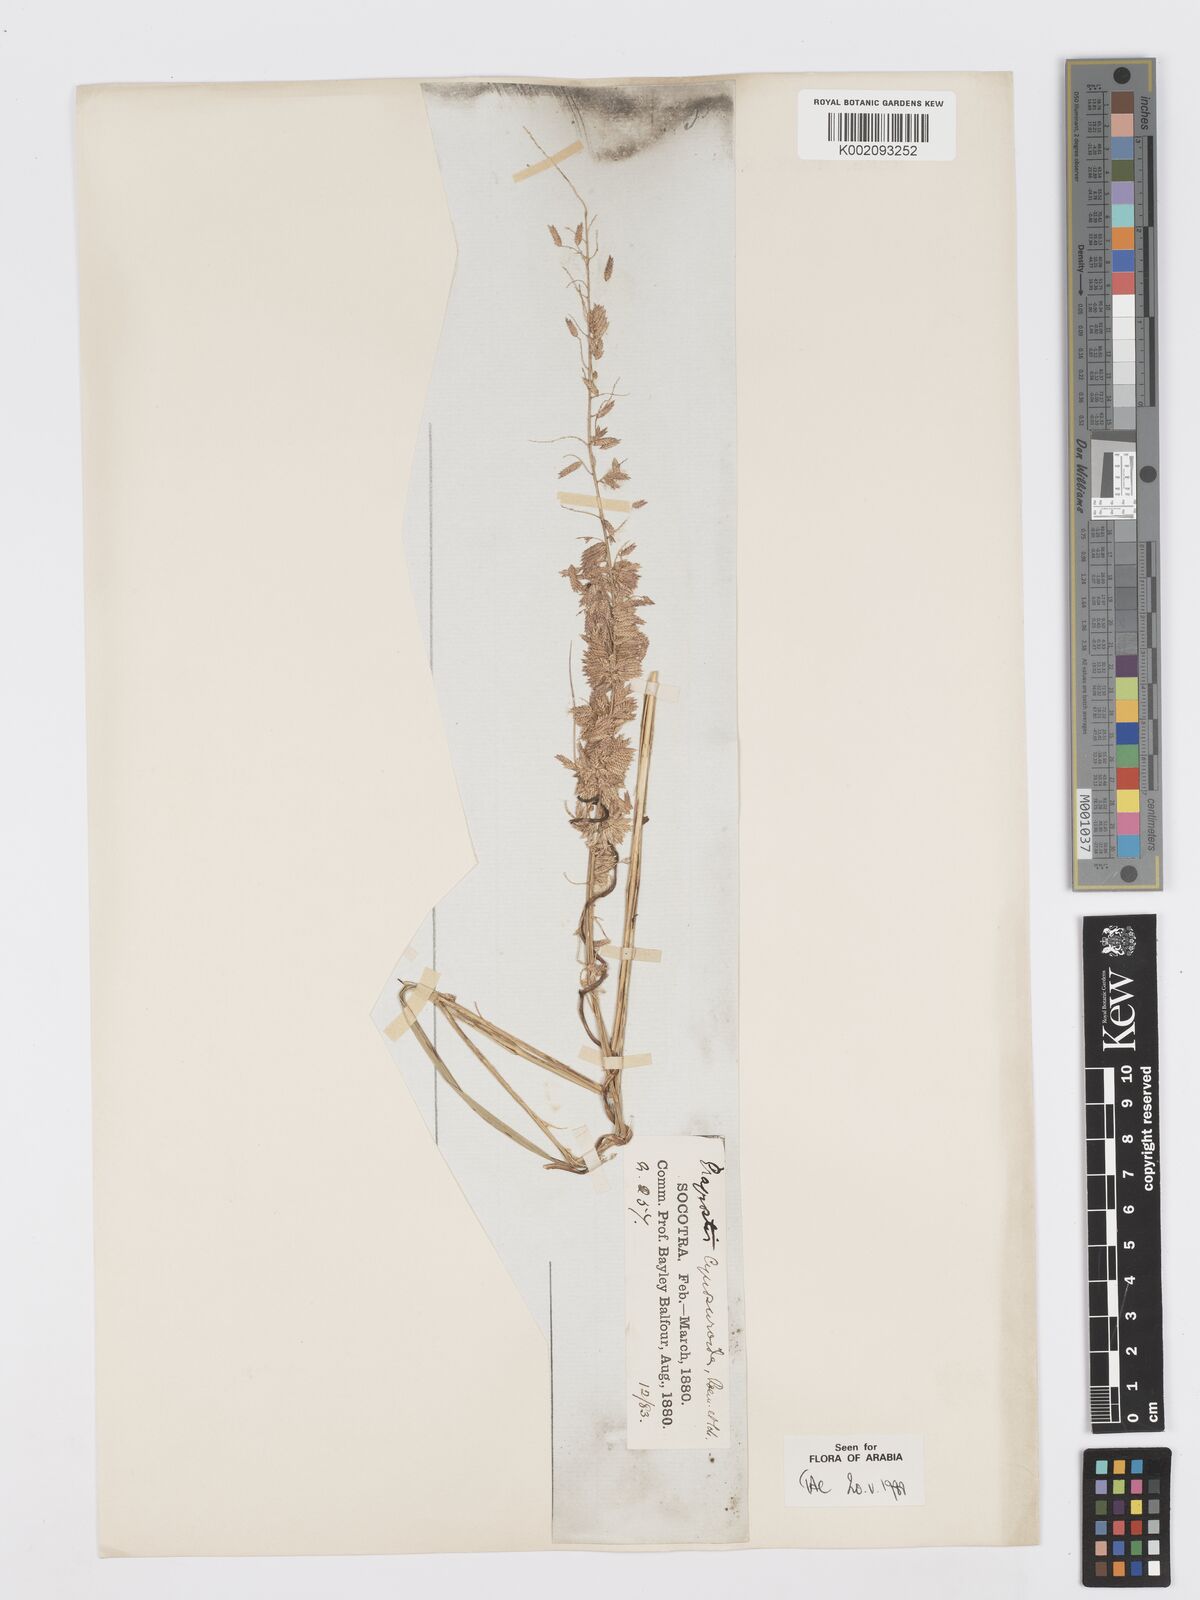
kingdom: Plantae
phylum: Tracheophyta
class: Liliopsida
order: Poales
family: Poaceae
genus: Desmostachya
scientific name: Desmostachya bipinnata
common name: Crowfoot grass
